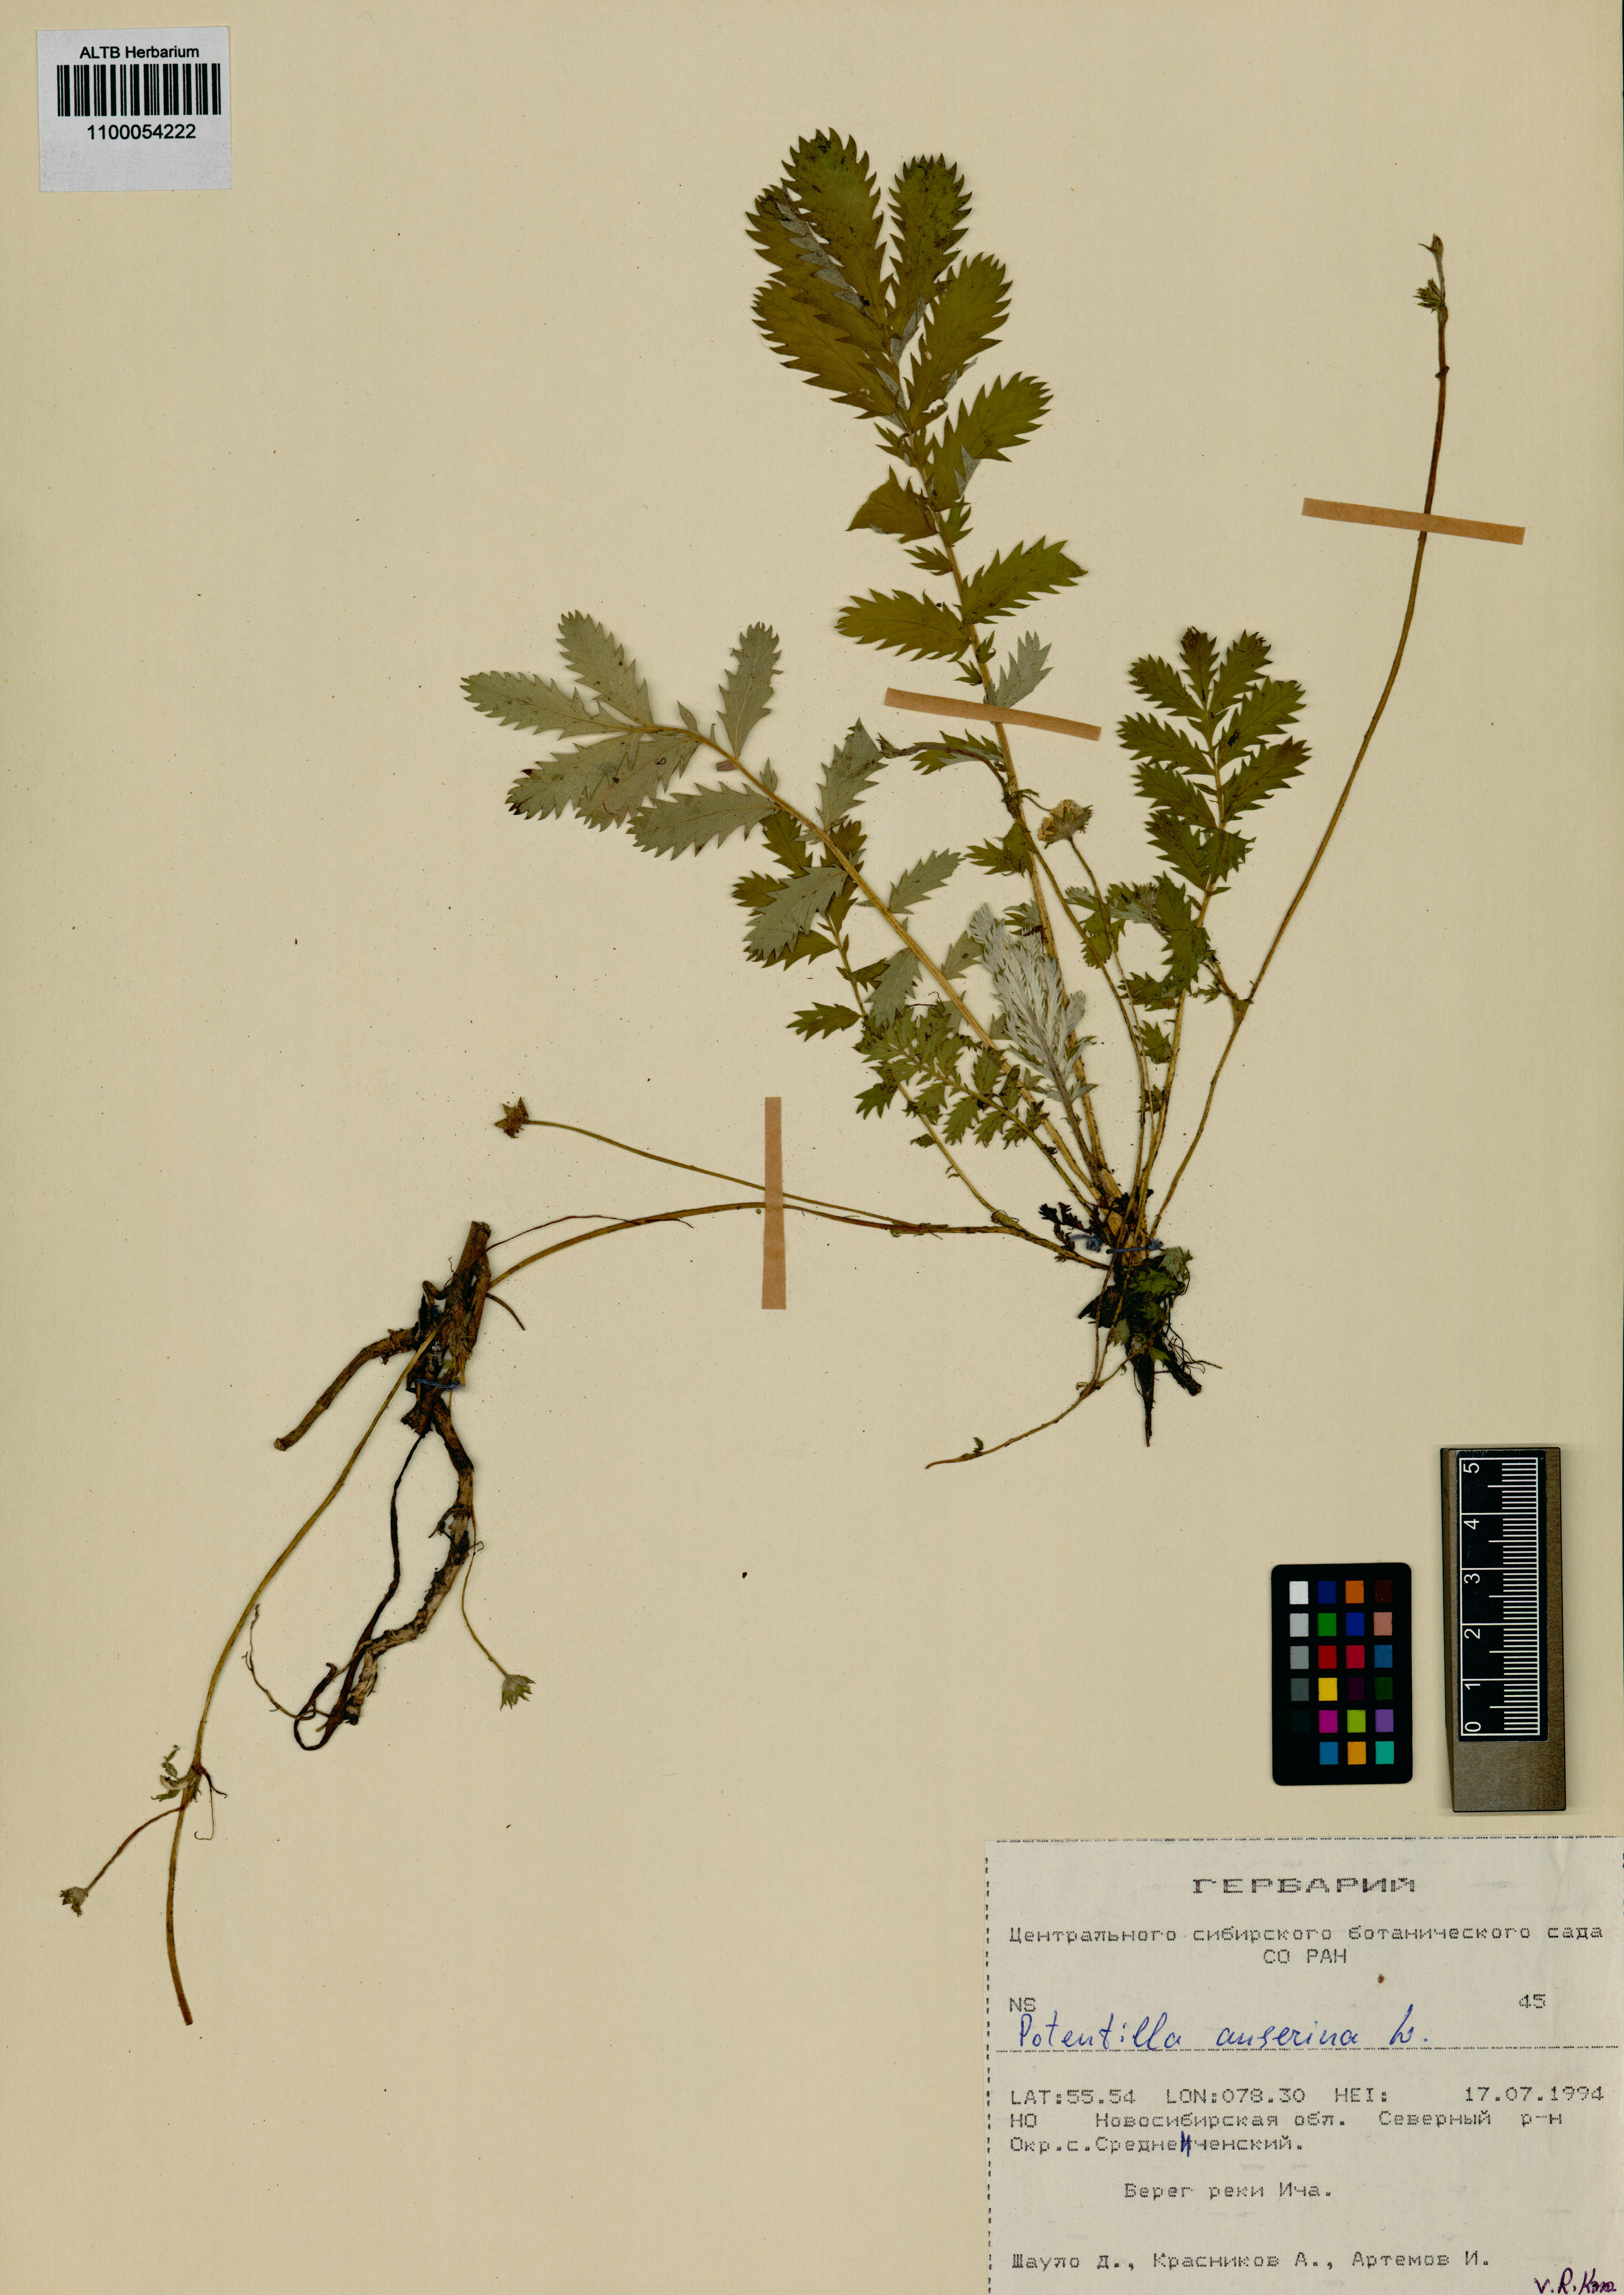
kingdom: Plantae
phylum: Tracheophyta
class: Magnoliopsida
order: Rosales
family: Rosaceae
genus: Argentina
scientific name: Argentina anserina
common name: Common silverweed
